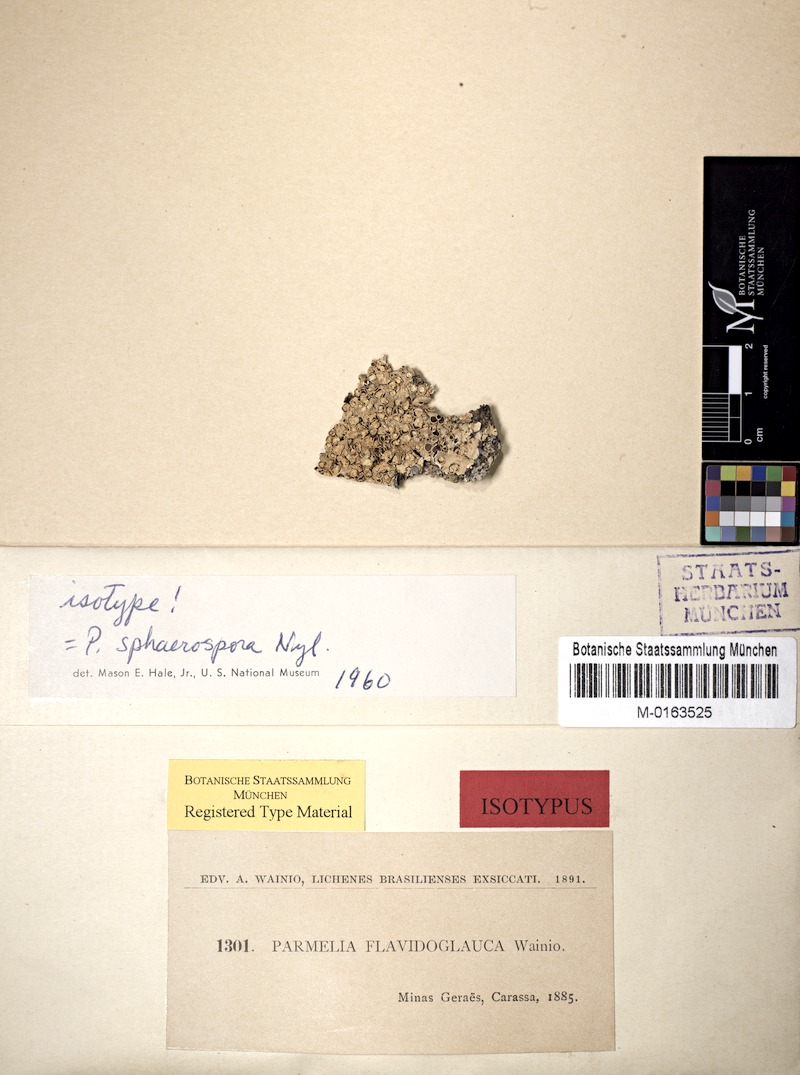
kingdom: Fungi
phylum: Ascomycota
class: Lecanoromycetes
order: Lecanorales
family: Parmeliaceae
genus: Relicina
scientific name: Relicina limbata
